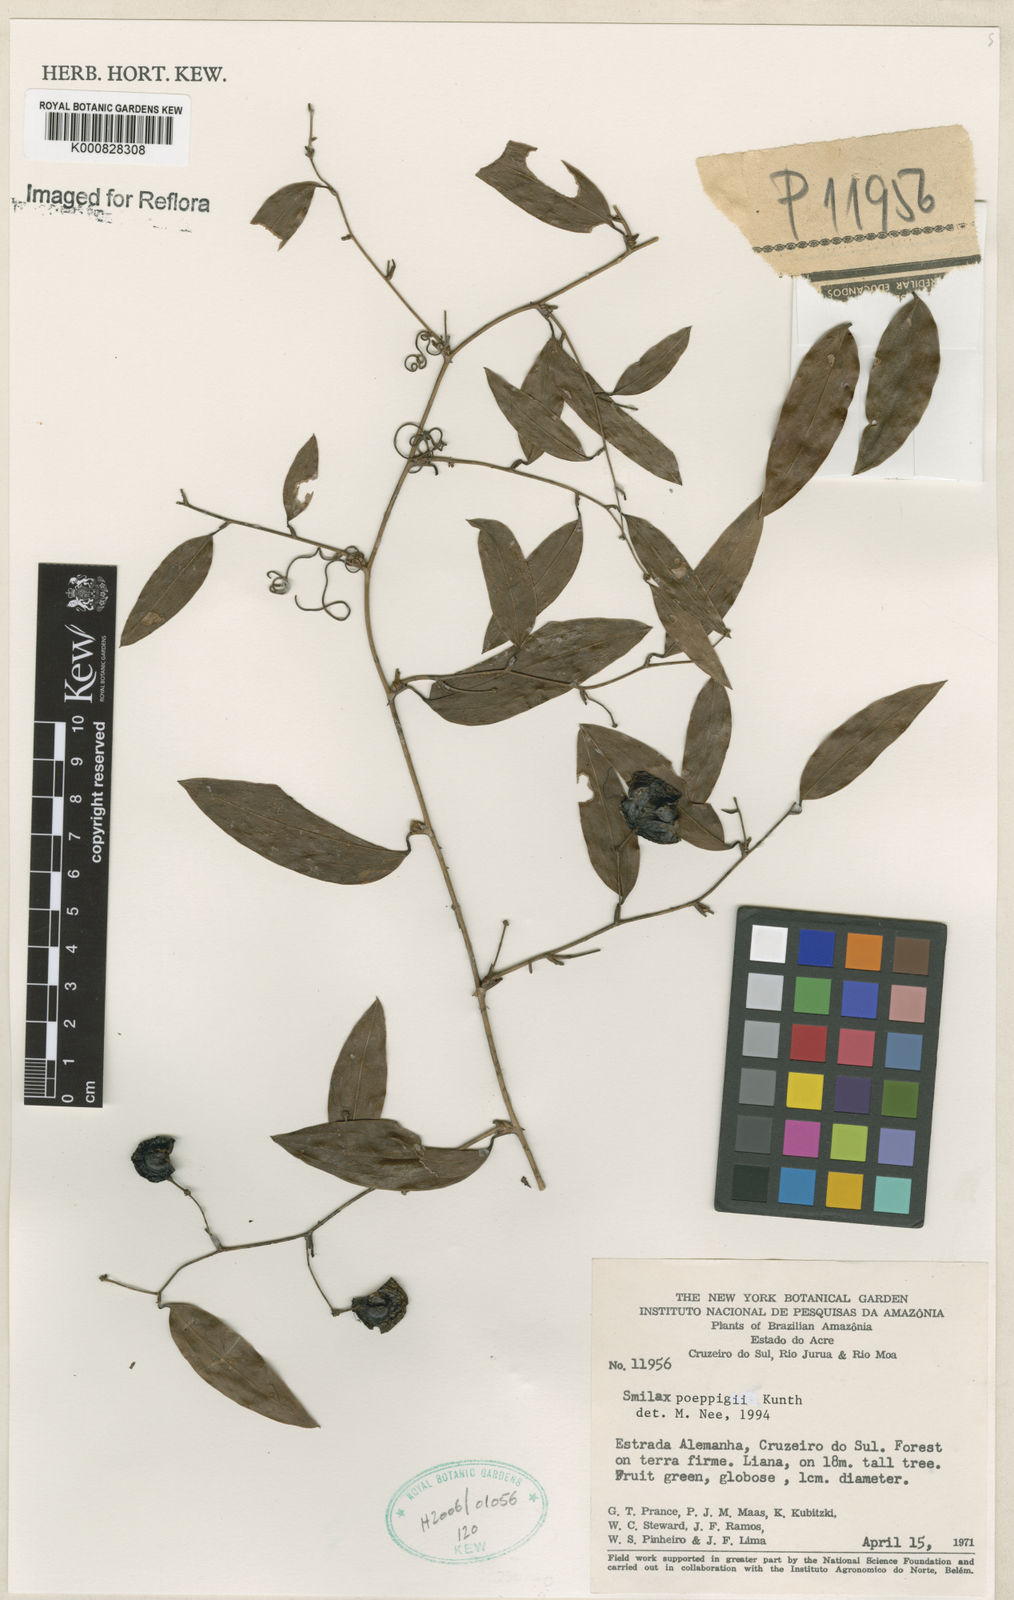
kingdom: Plantae
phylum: Tracheophyta
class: Liliopsida
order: Liliales
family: Smilacaceae
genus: Smilax
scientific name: Smilax purhampuy
